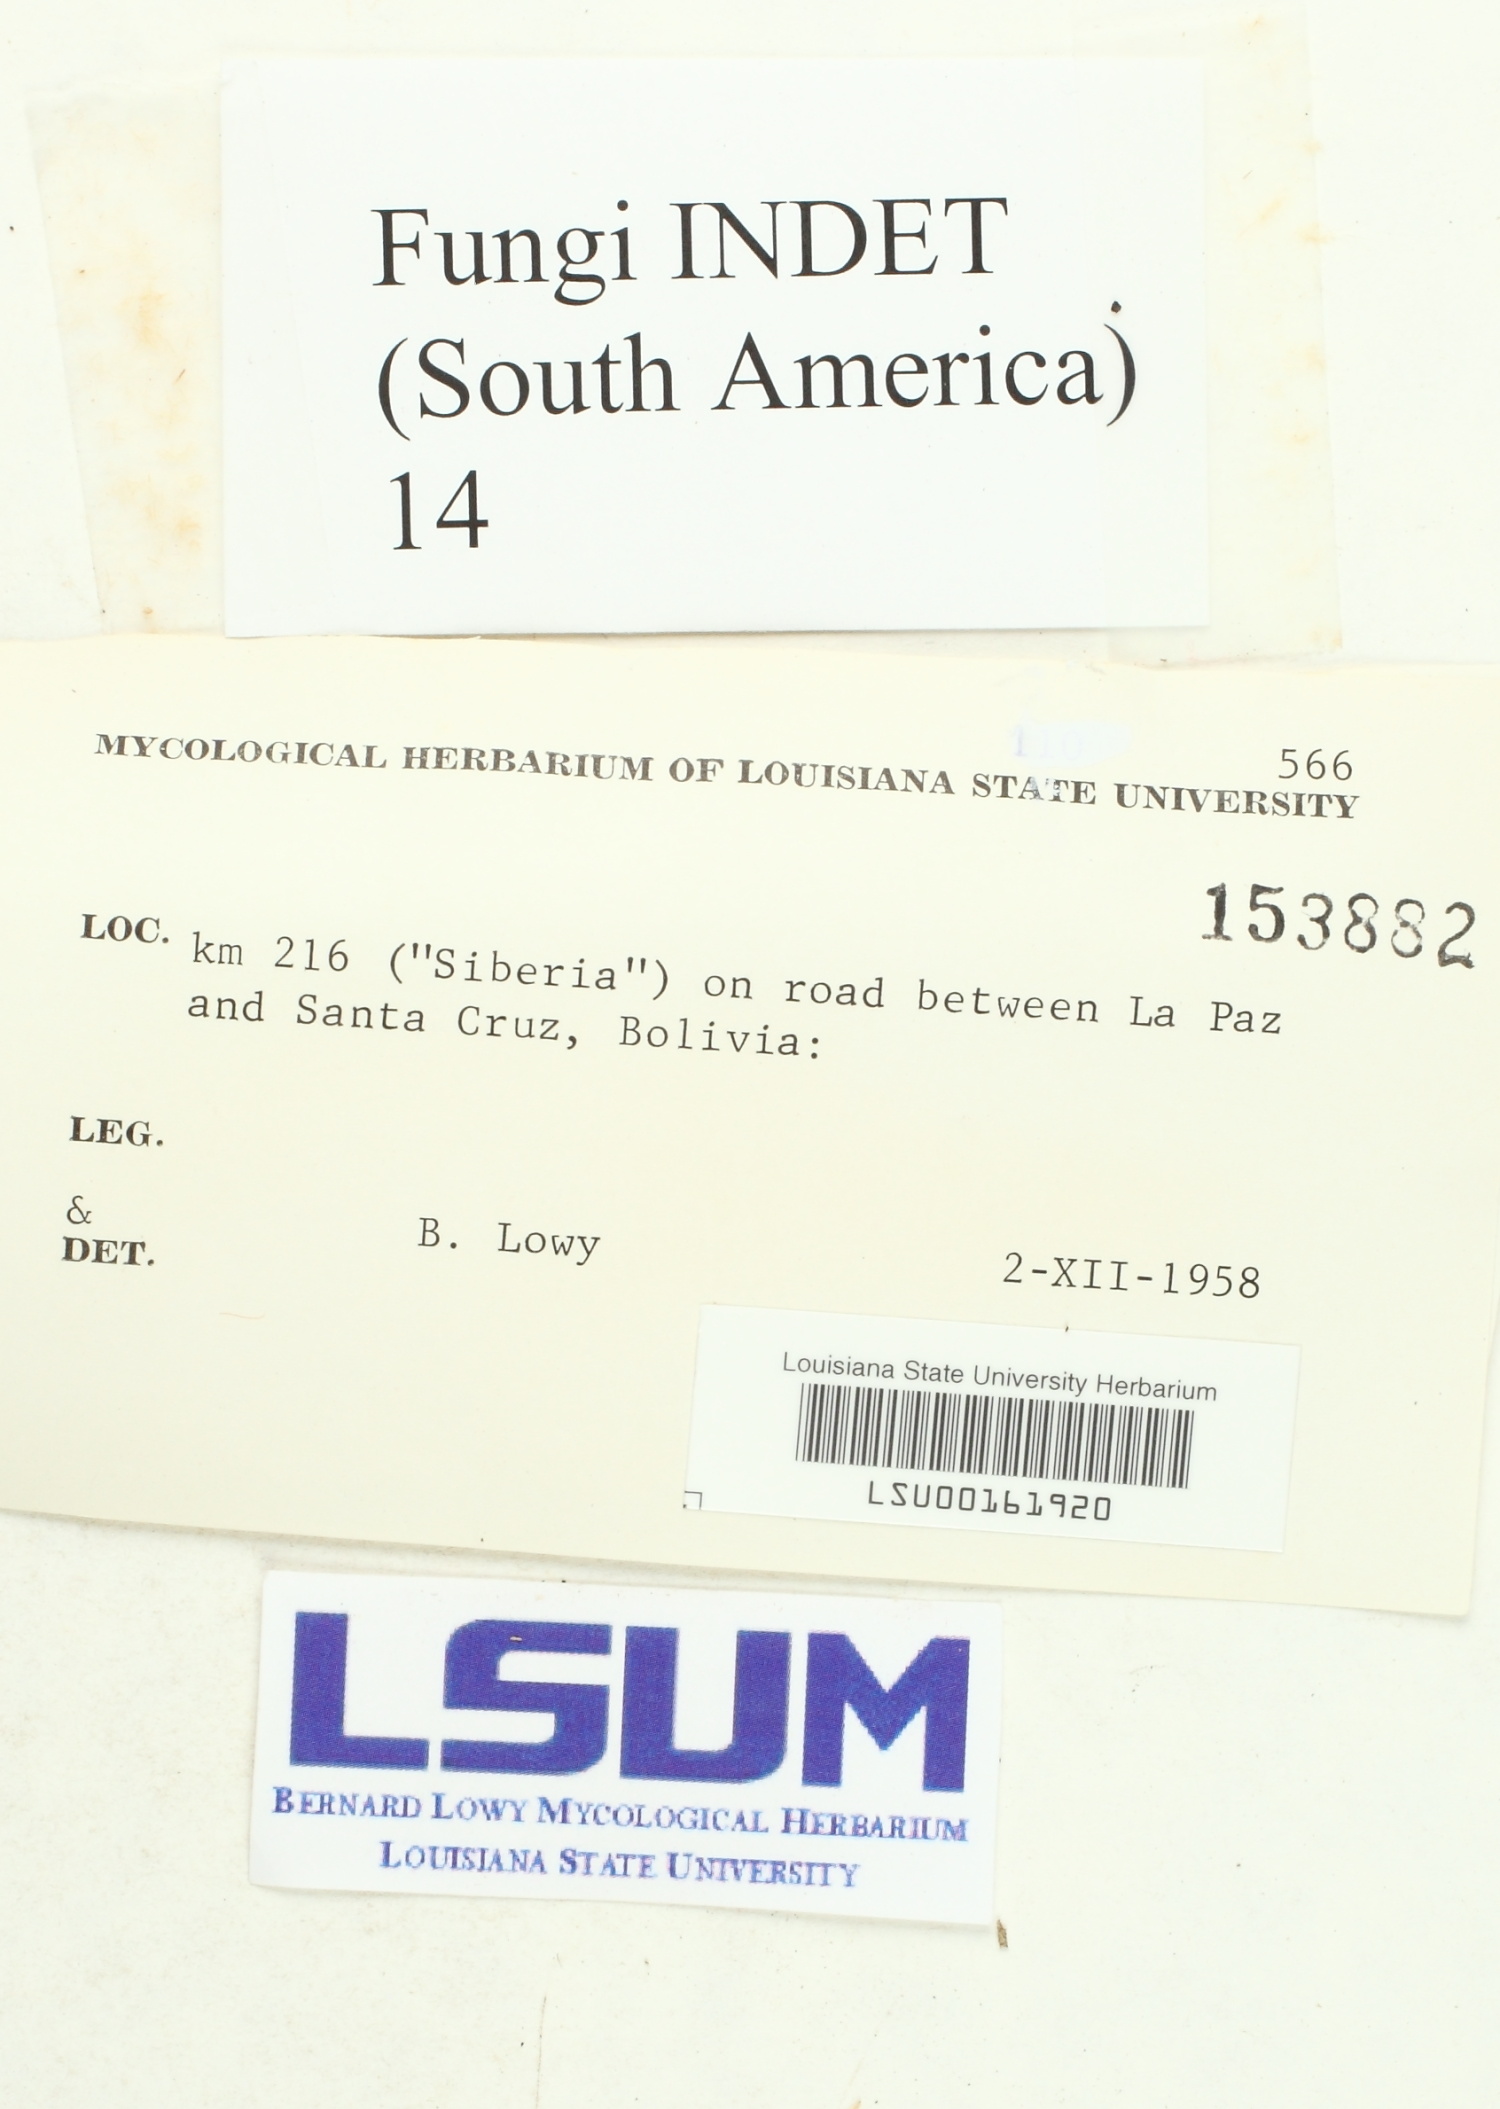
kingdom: Fungi
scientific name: Fungi
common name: Fungi
